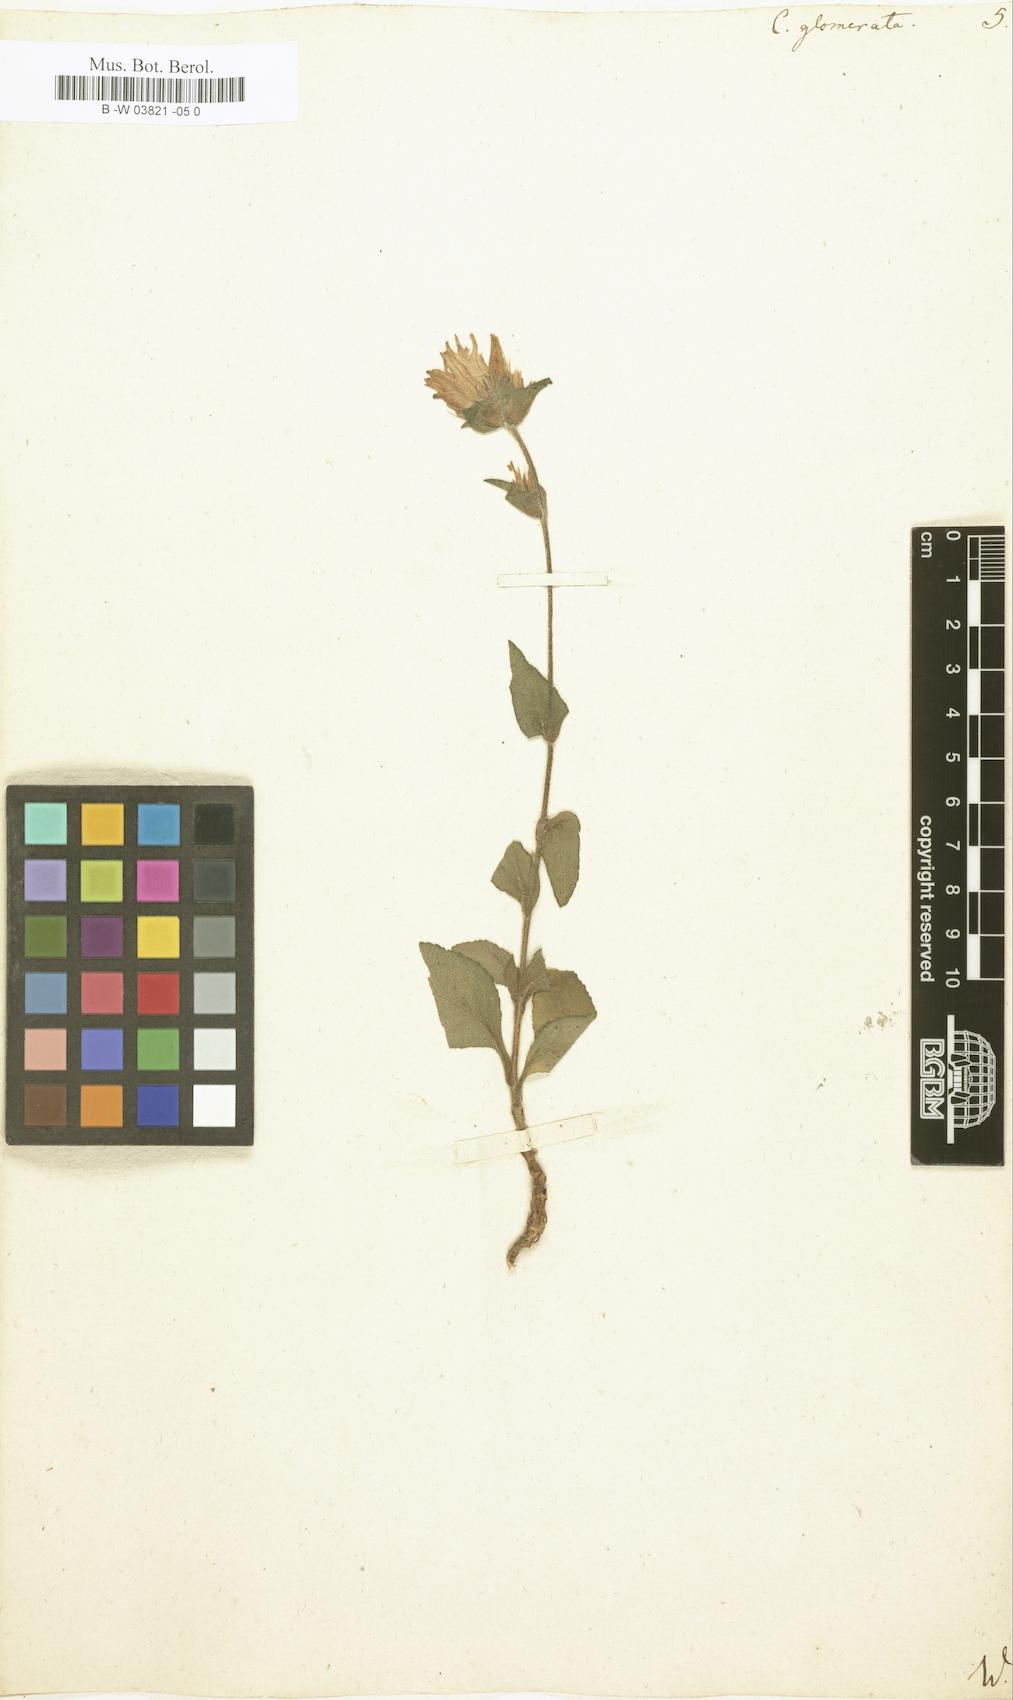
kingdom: Plantae
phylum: Tracheophyta
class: Magnoliopsida
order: Asterales
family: Campanulaceae
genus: Campanula
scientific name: Campanula glomerata
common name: Clustered bellflower
